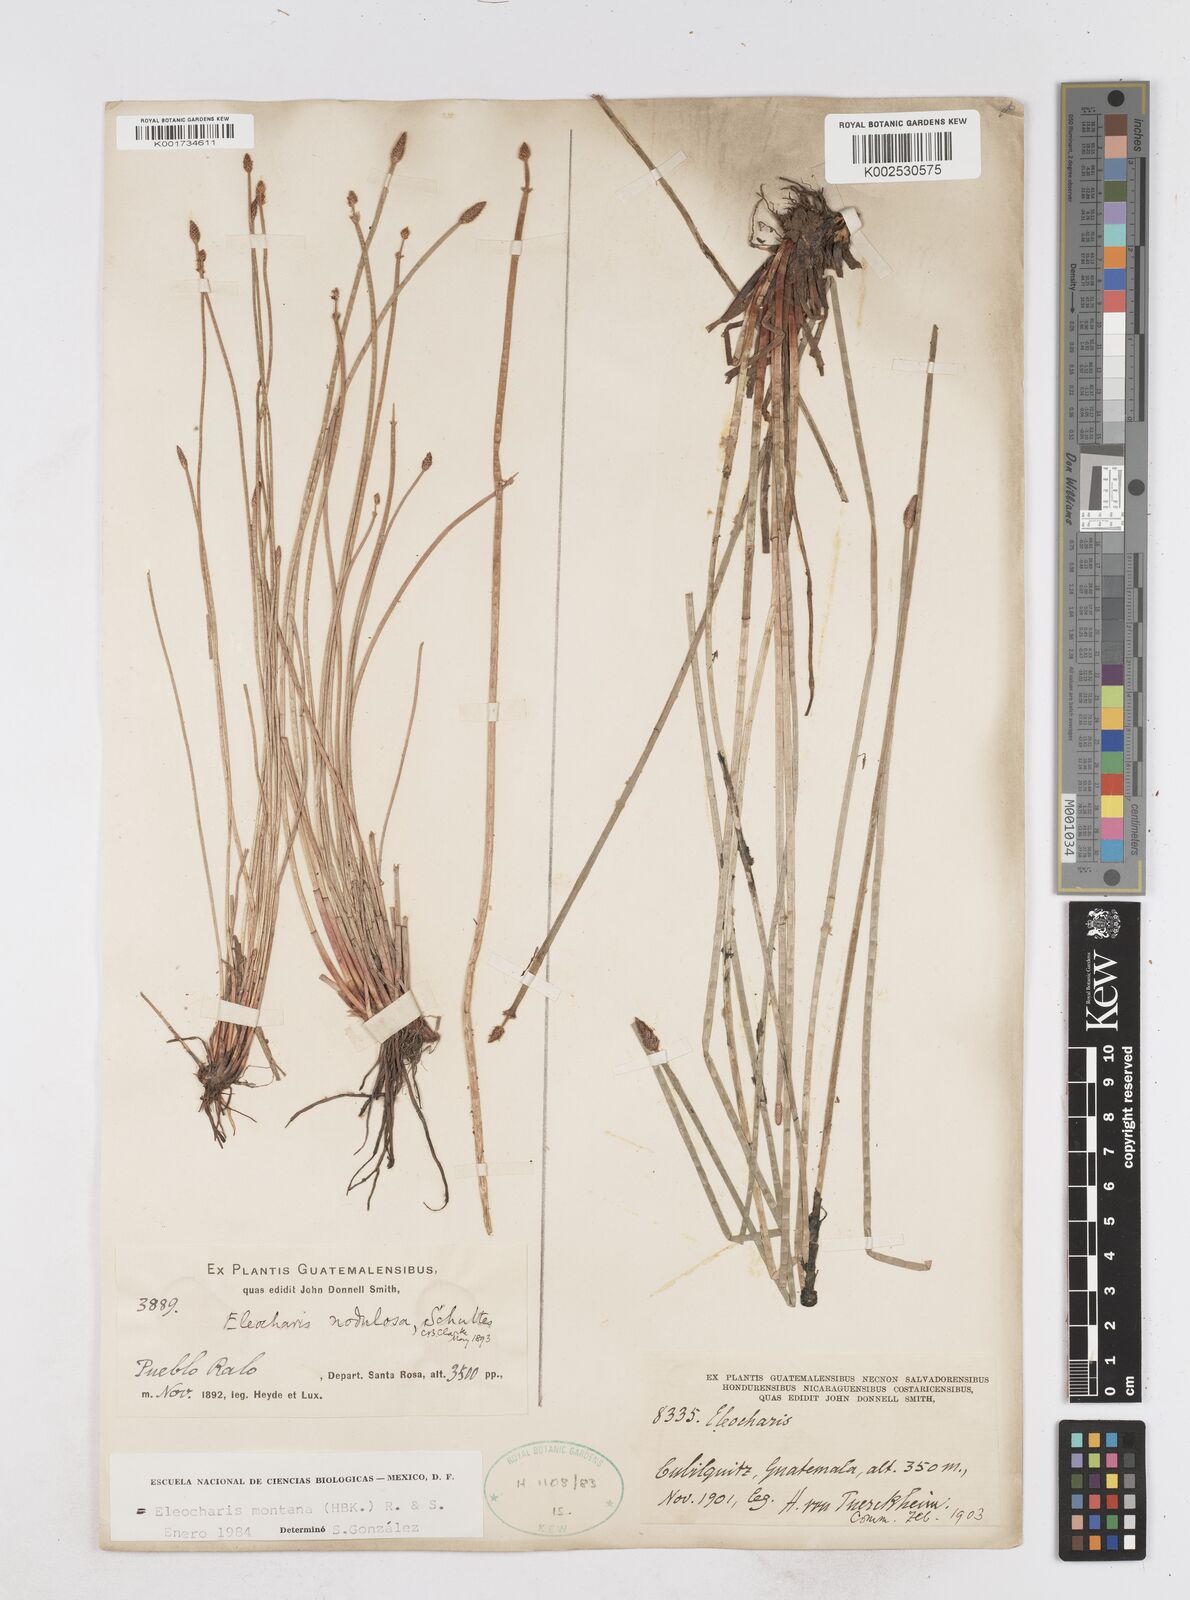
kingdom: Plantae
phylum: Tracheophyta
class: Liliopsida
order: Poales
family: Cyperaceae
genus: Eleocharis
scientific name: Eleocharis montana
